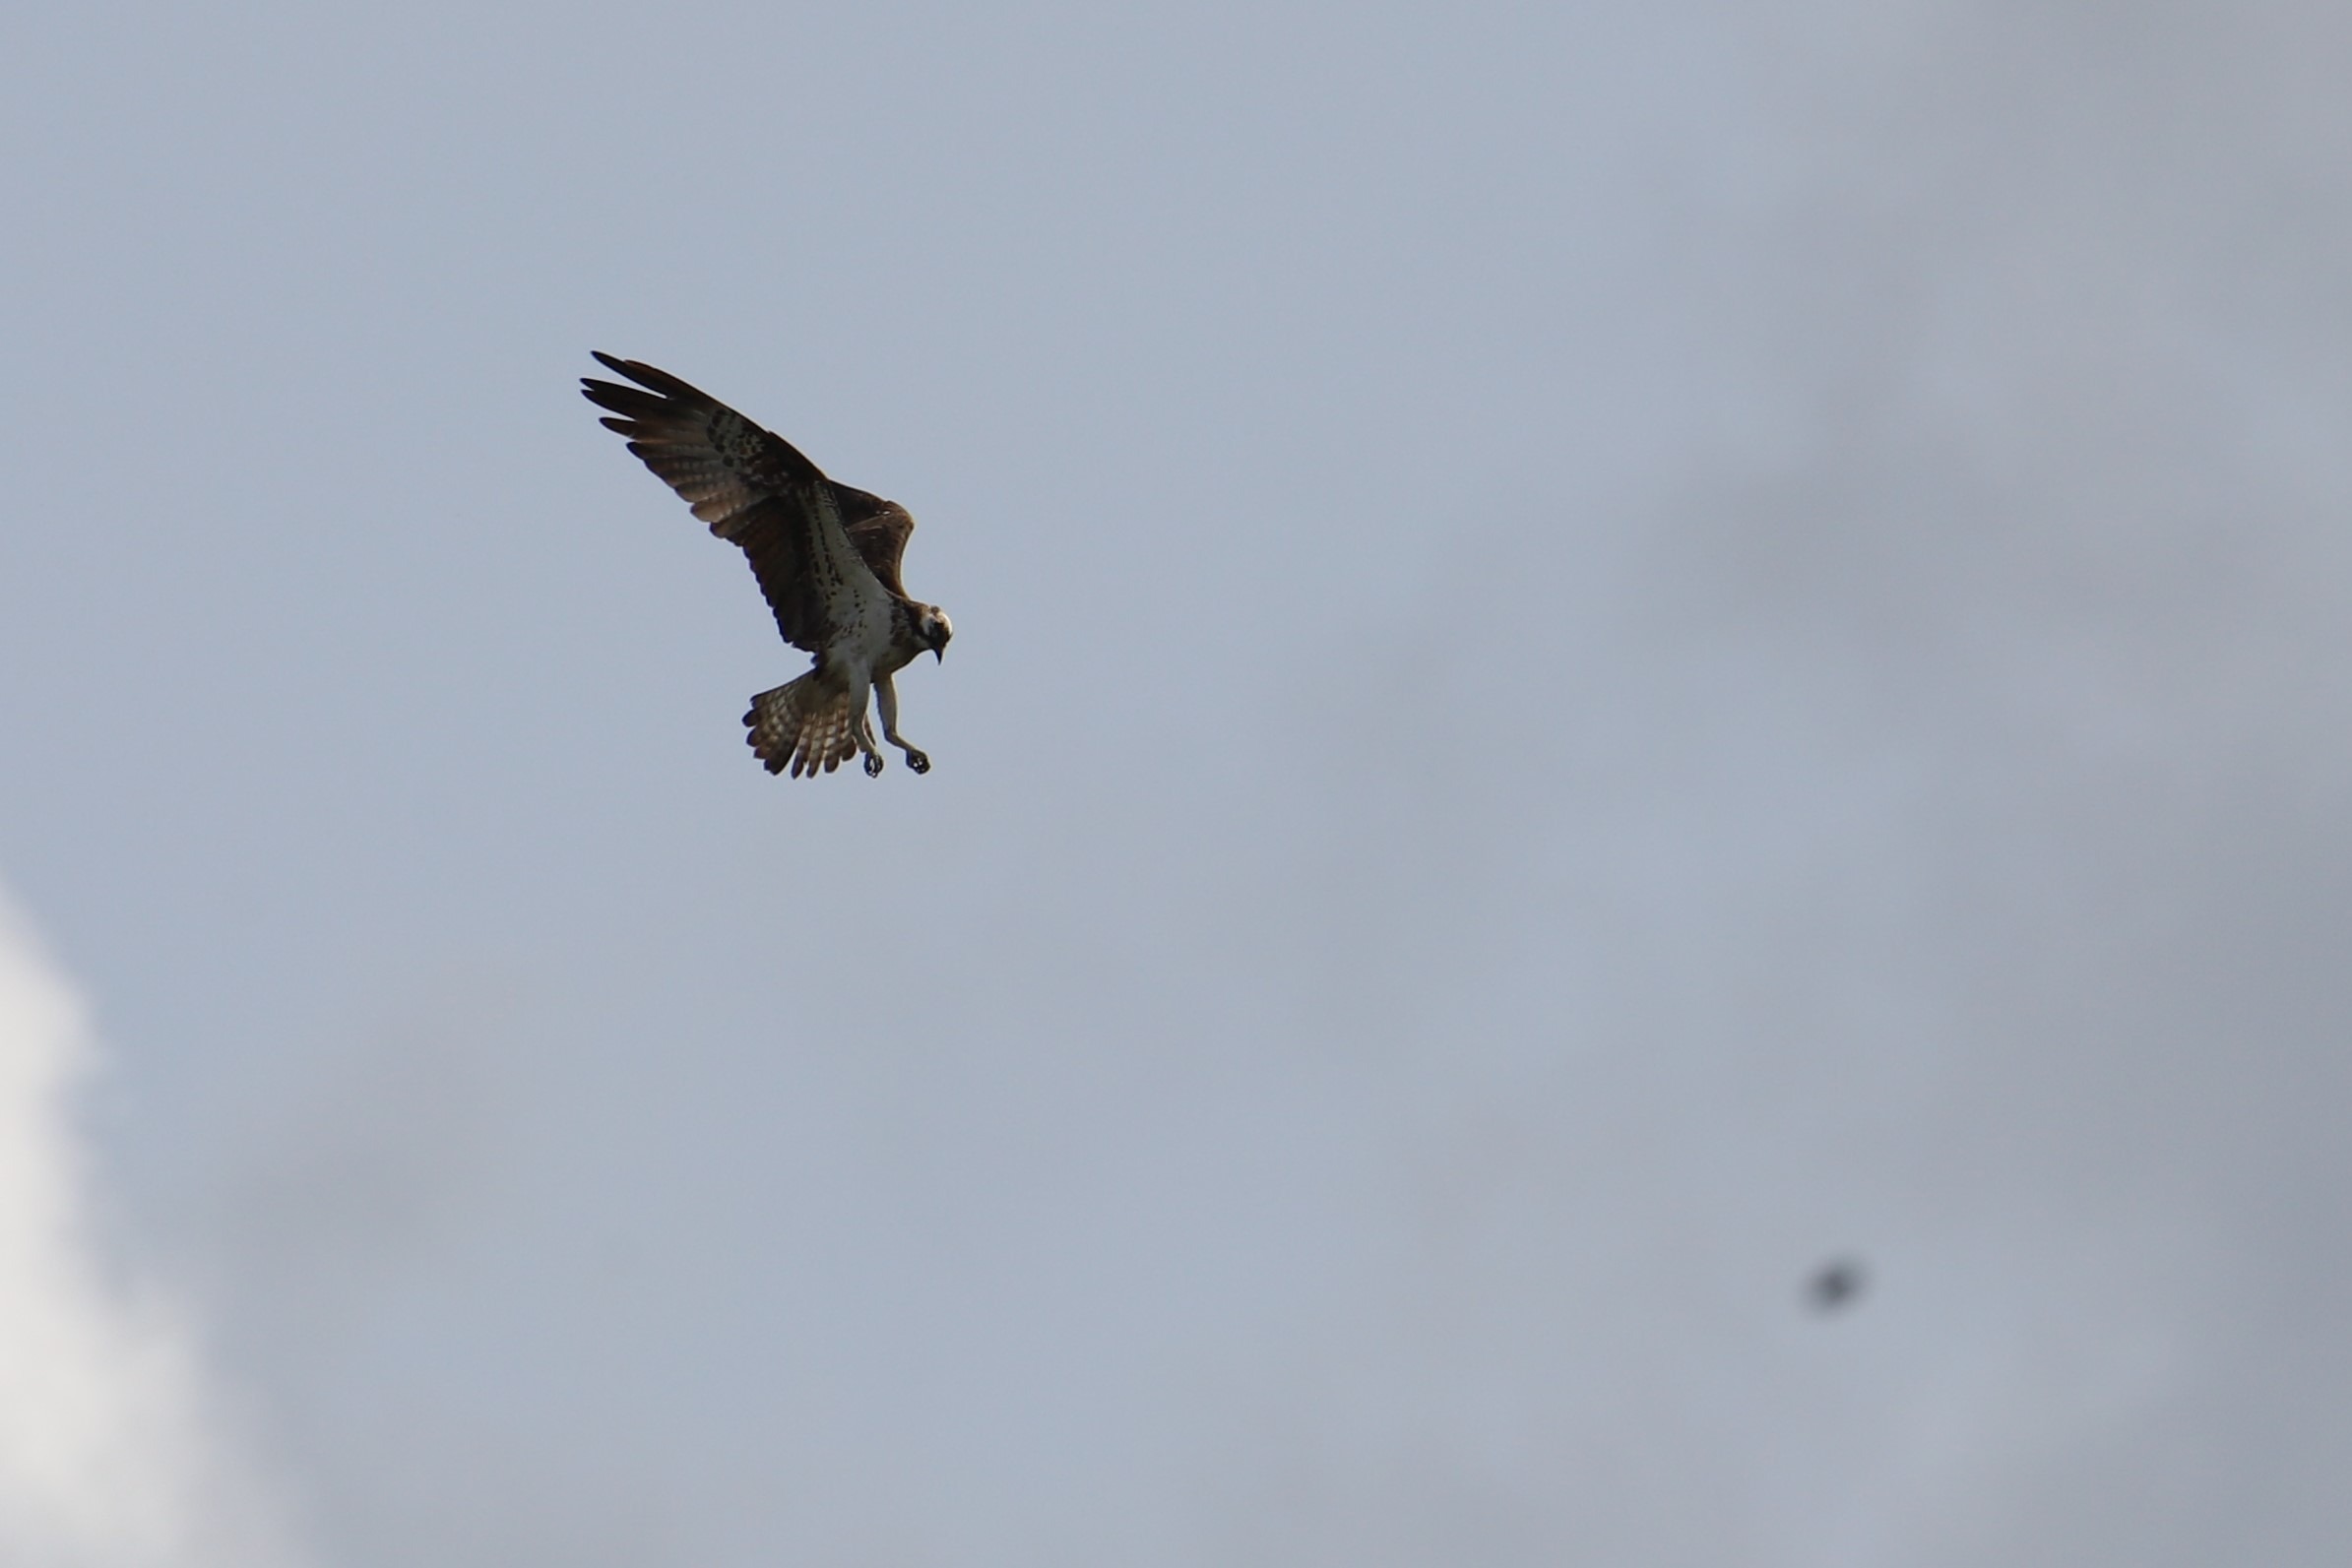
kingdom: Animalia
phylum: Chordata
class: Aves
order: Accipitriformes
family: Pandionidae
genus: Pandion
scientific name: Pandion haliaetus
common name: Fiskeørn
